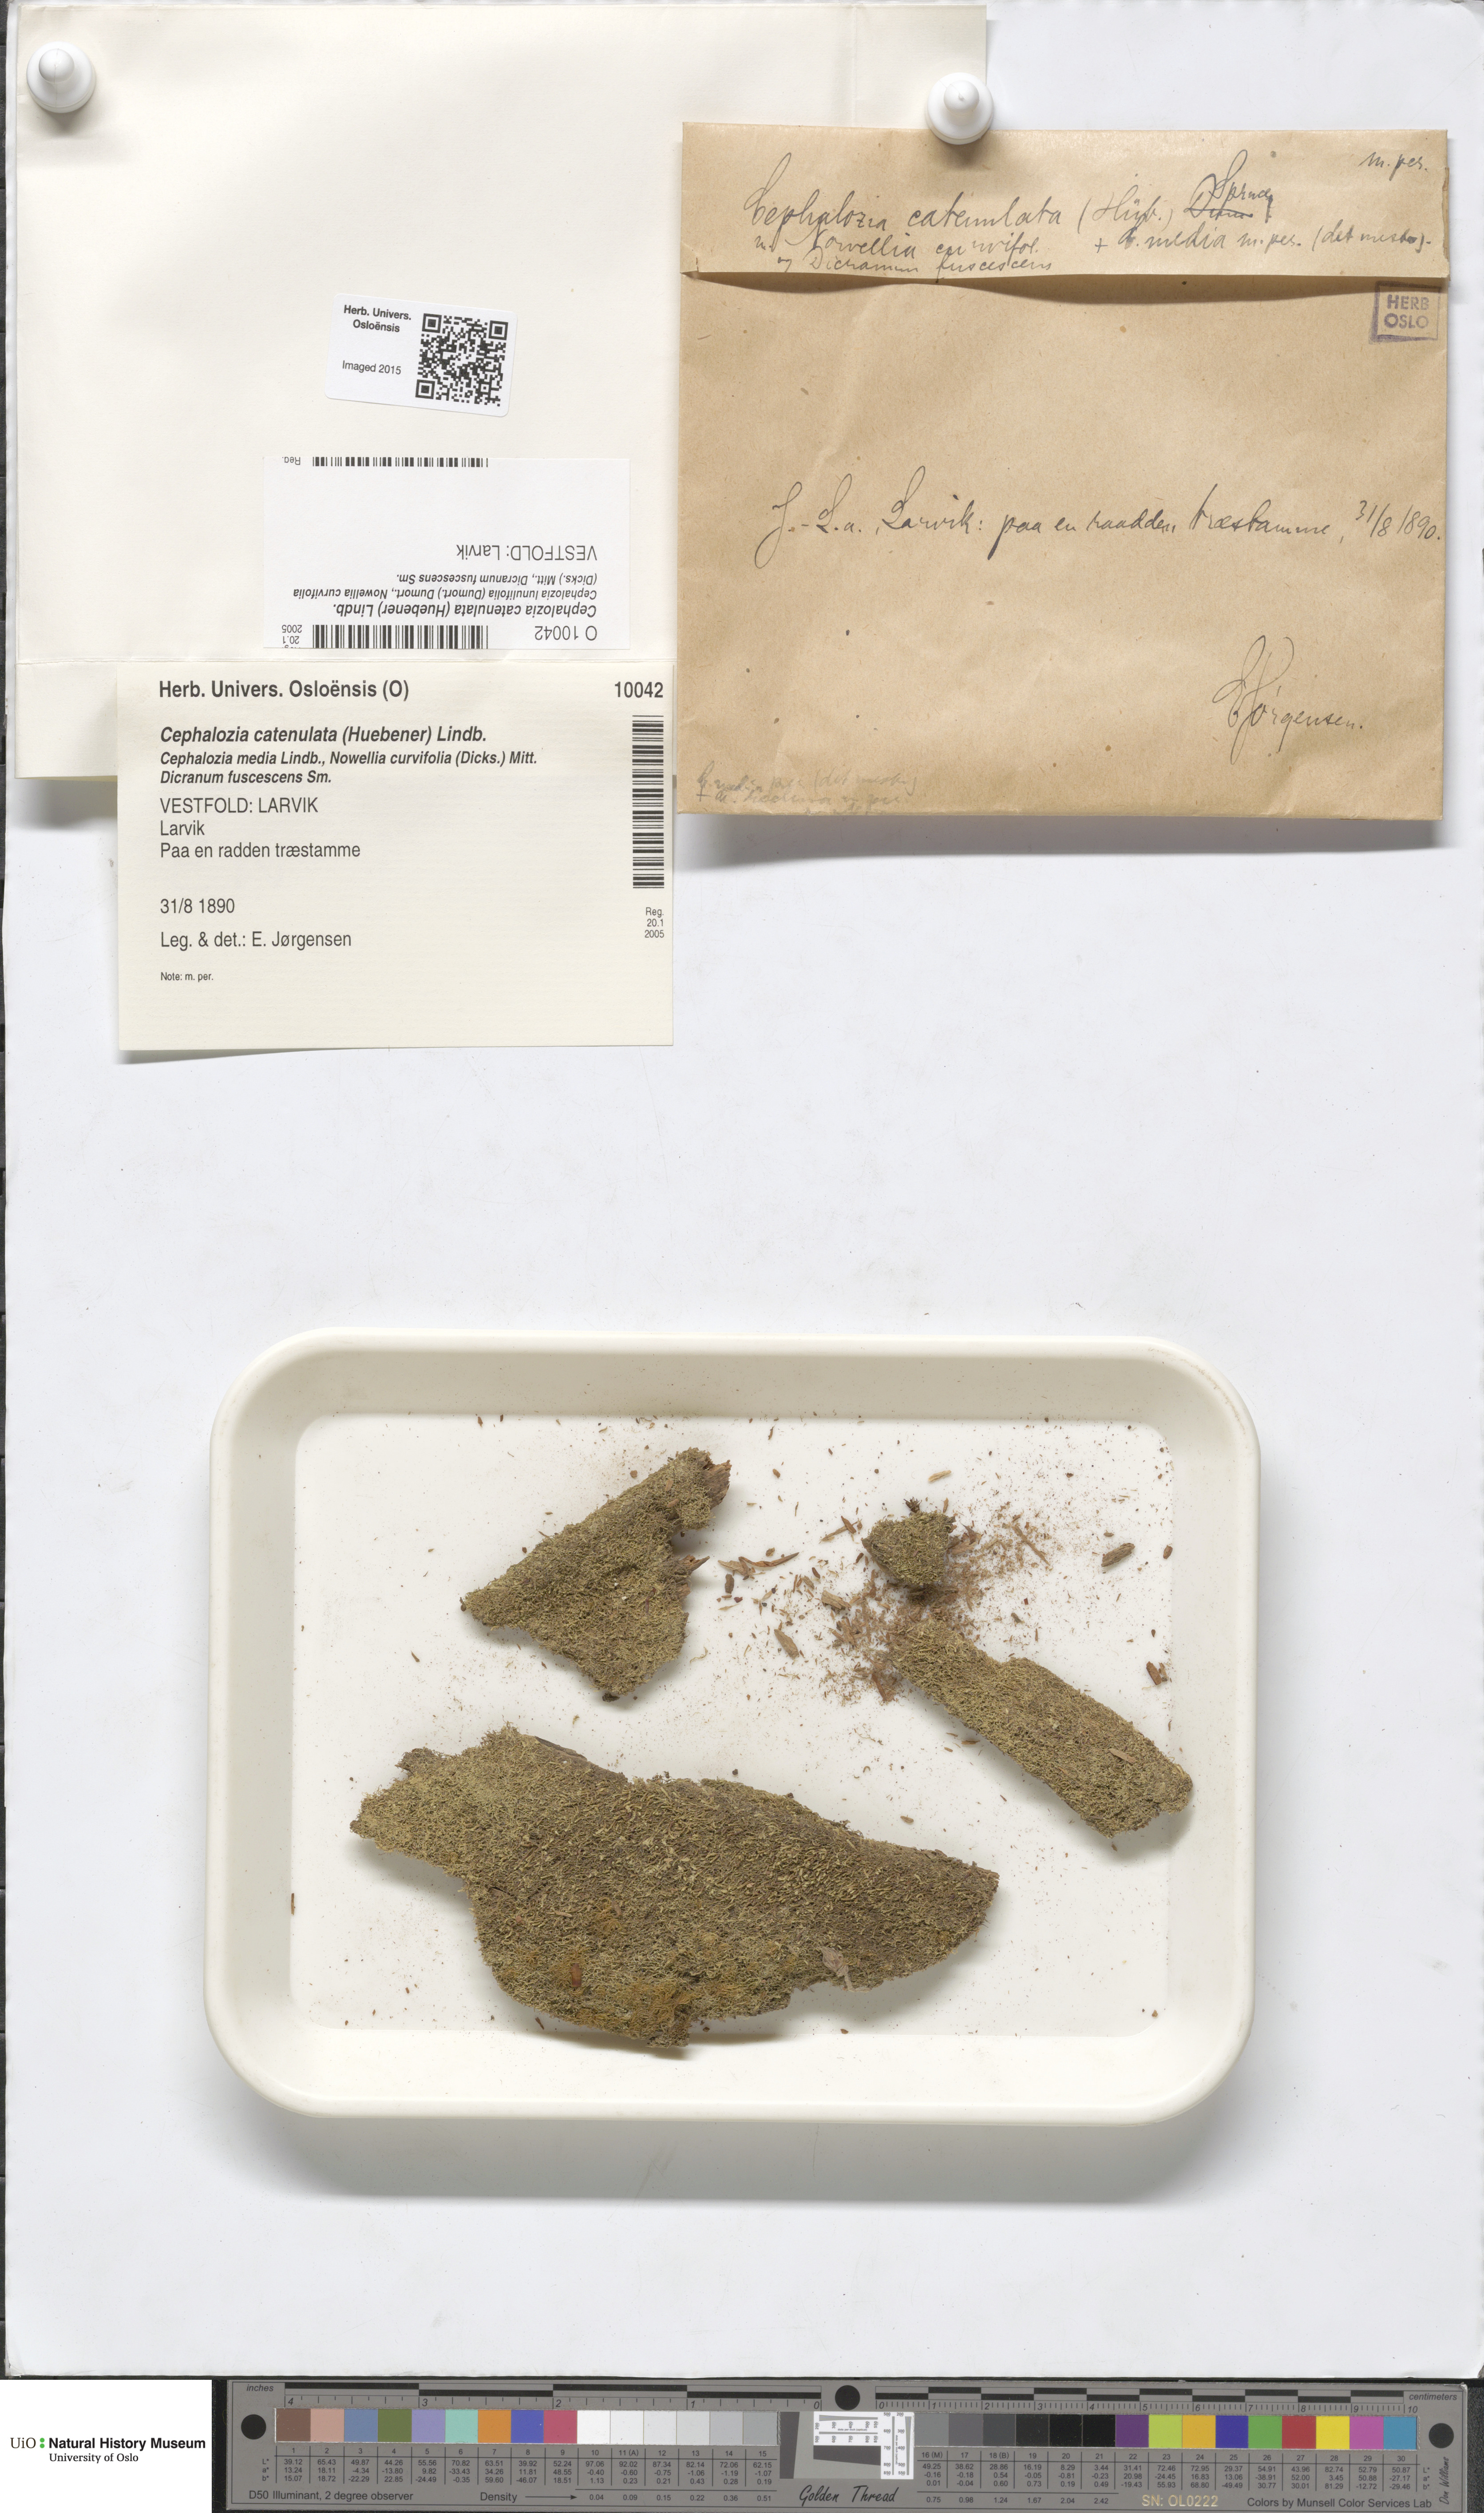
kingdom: Plantae
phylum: Marchantiophyta
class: Jungermanniopsida
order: Jungermanniales
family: Cephaloziaceae
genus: Fuscocephaloziopsis
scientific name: Fuscocephaloziopsis catenulata
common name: Chain pincerwort
